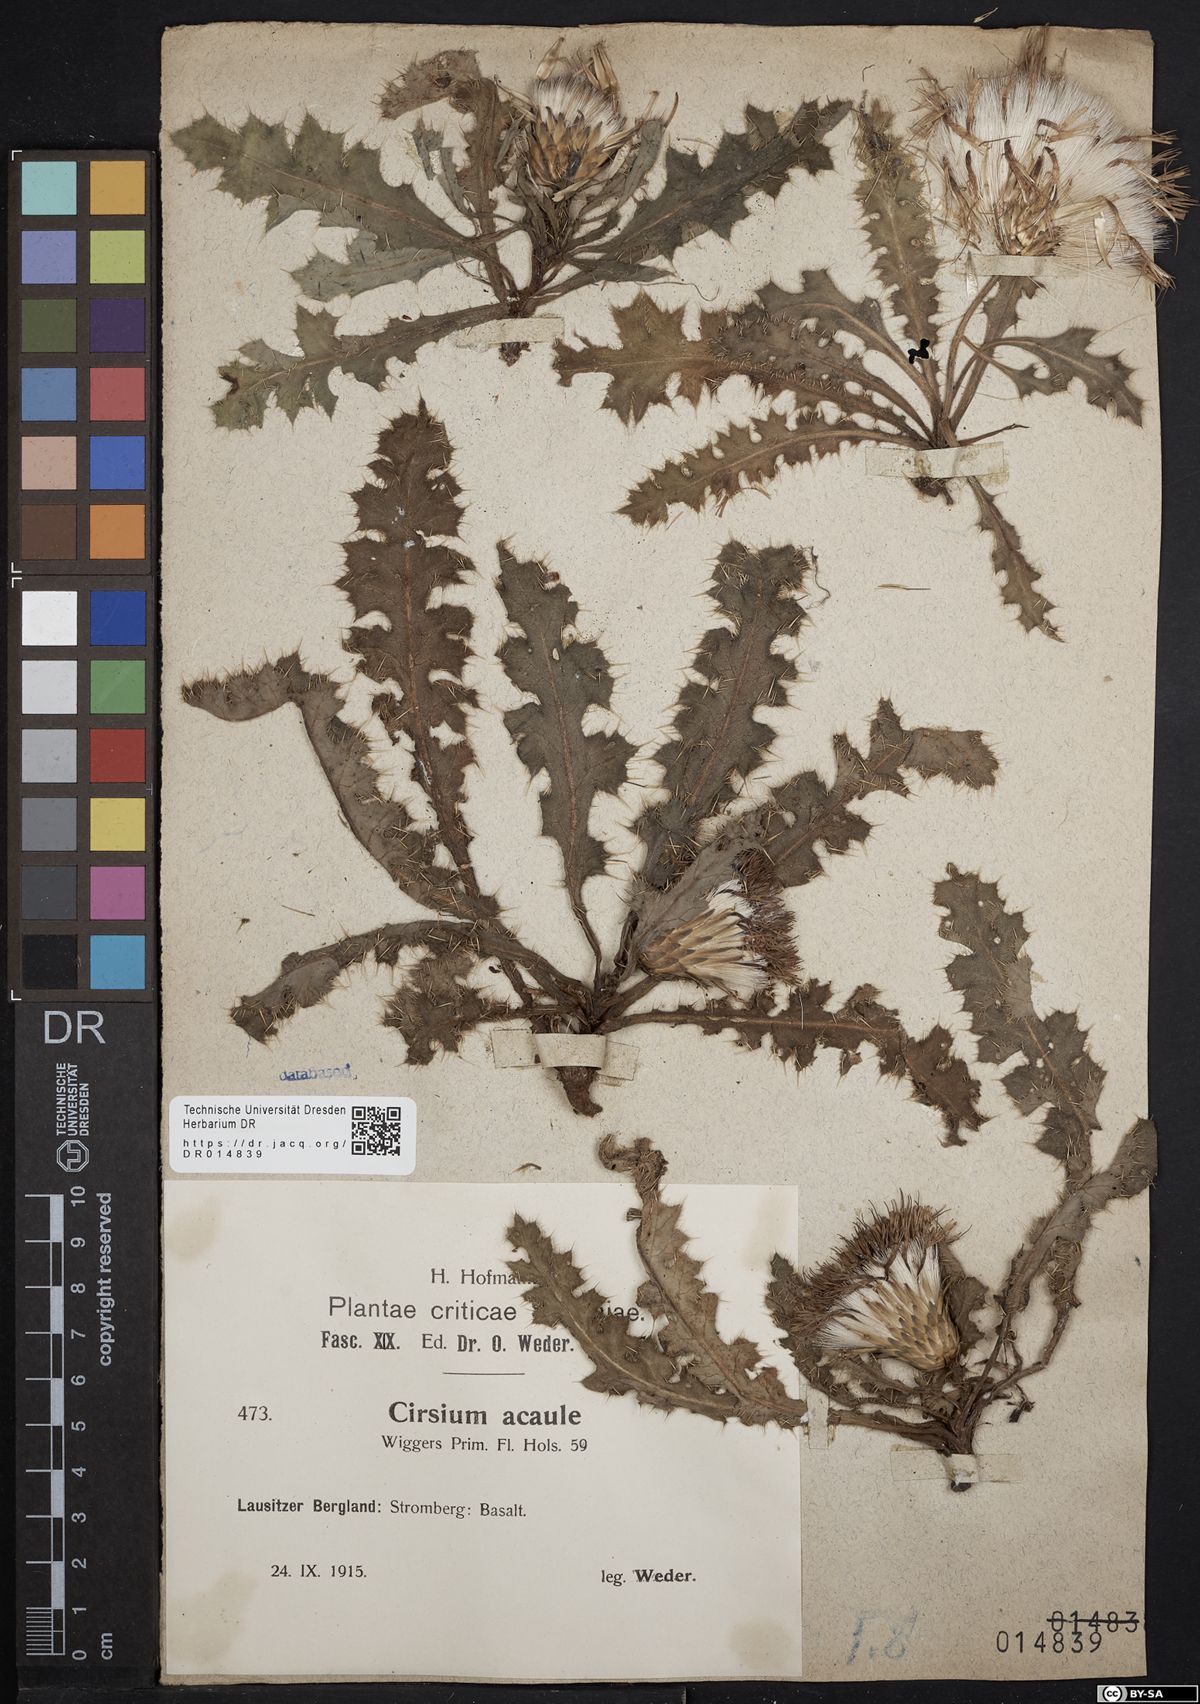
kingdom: Plantae
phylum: Tracheophyta
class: Magnoliopsida
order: Asterales
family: Asteraceae
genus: Cirsium
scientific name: Cirsium acaule
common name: Dwarf thistle
